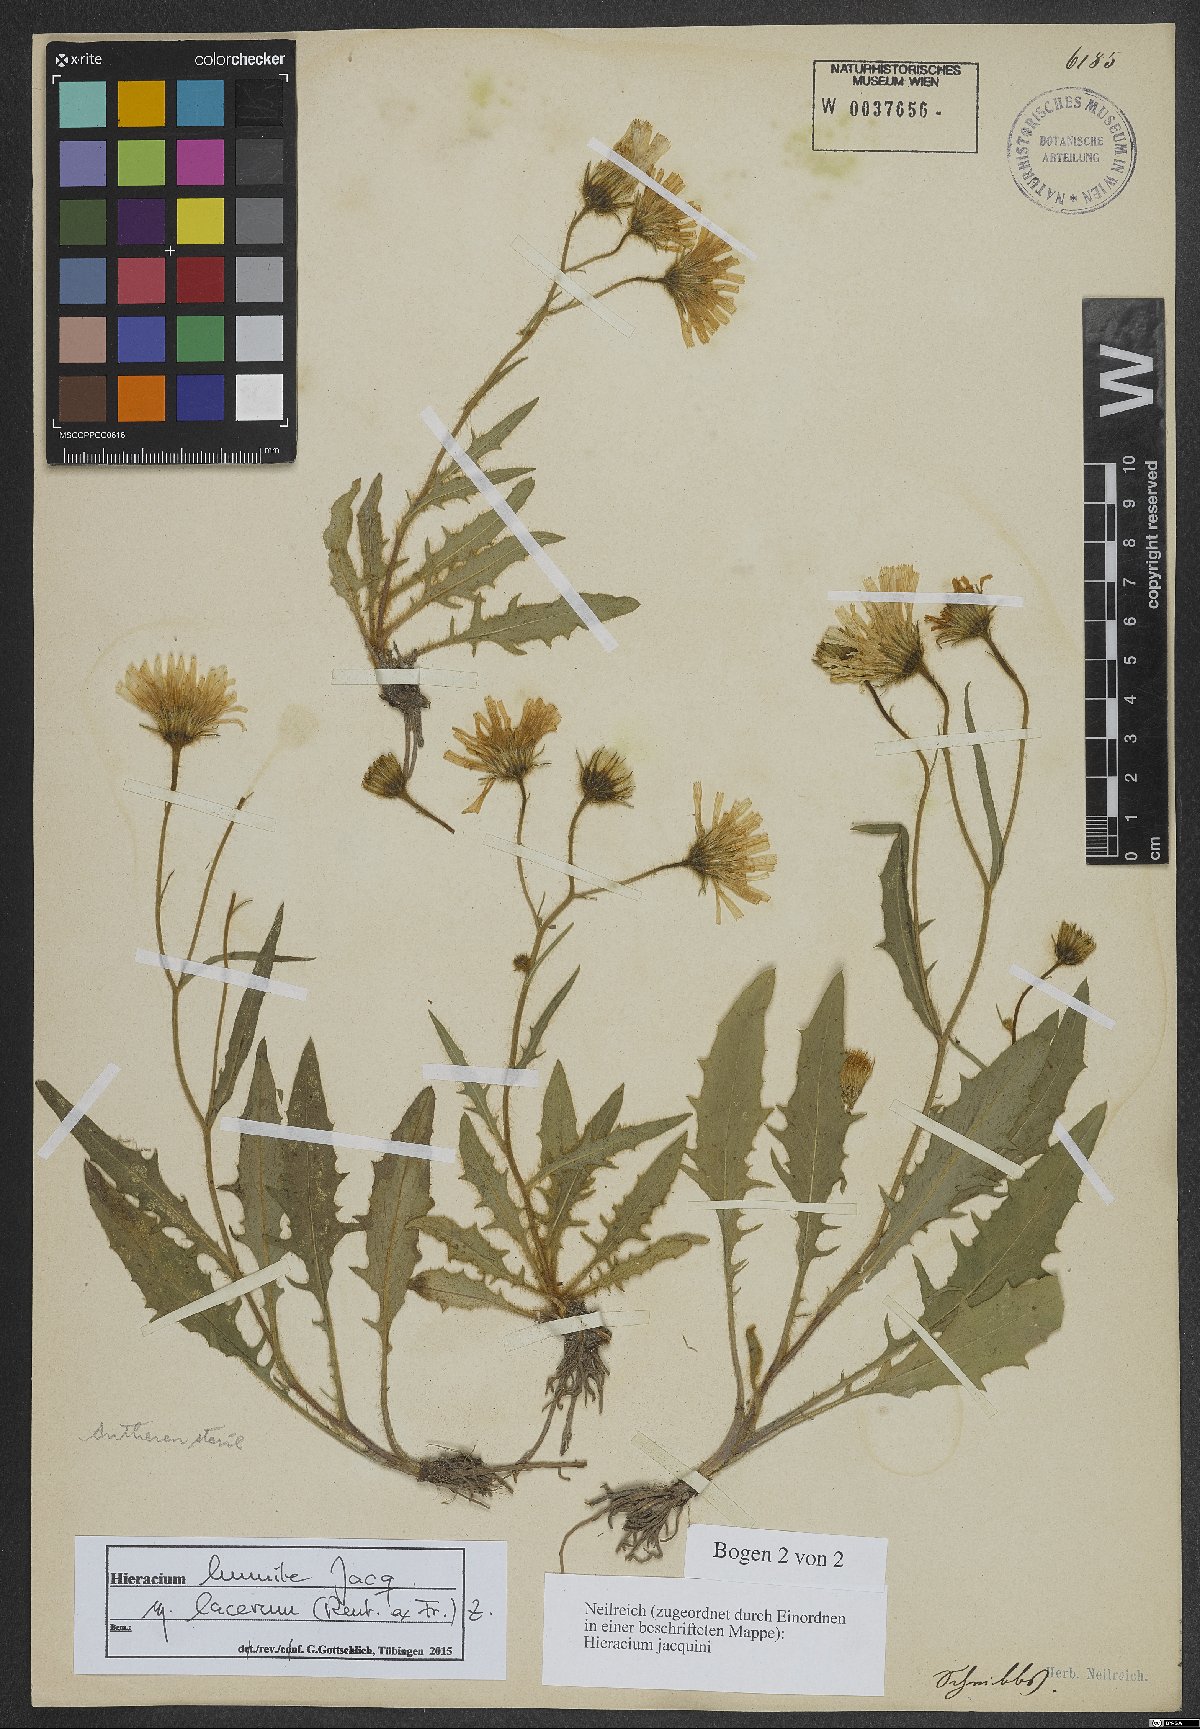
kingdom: Plantae
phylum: Tracheophyta
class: Magnoliopsida
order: Asterales
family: Asteraceae
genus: Hieracium
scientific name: Hieracium humile
